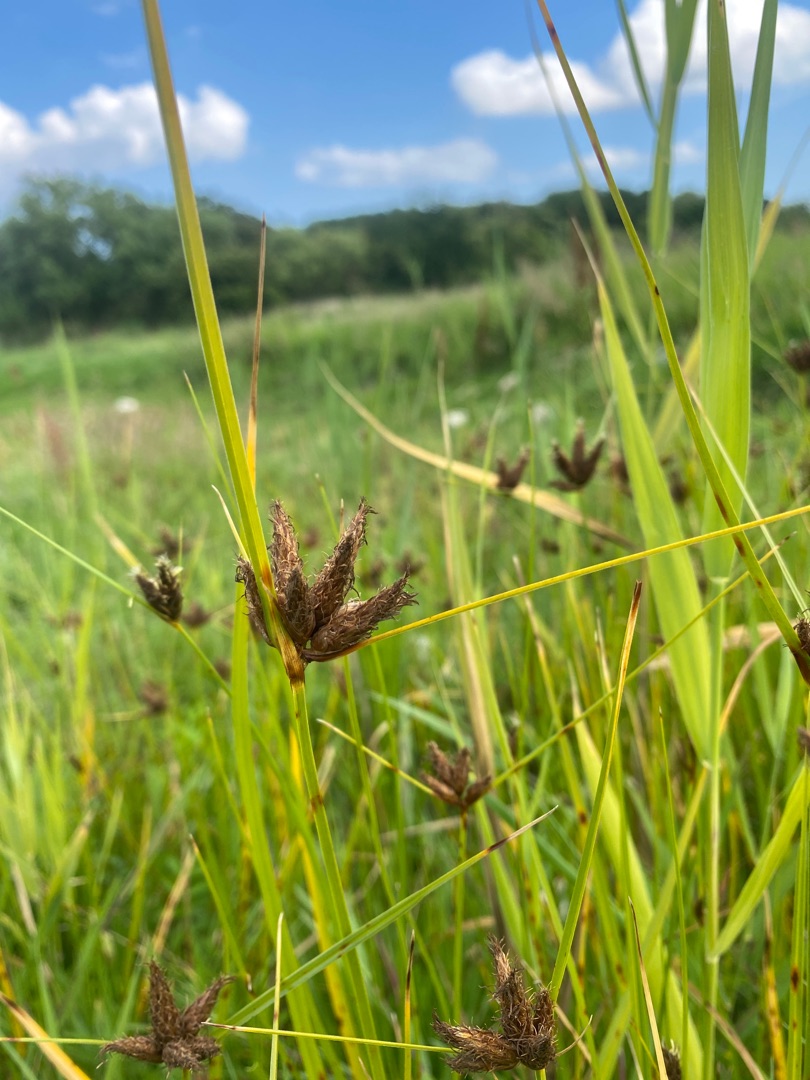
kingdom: Plantae
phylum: Tracheophyta
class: Liliopsida
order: Poales
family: Cyperaceae
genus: Bolboschoenus
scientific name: Bolboschoenus maritimus
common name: Strand-kogleaks
